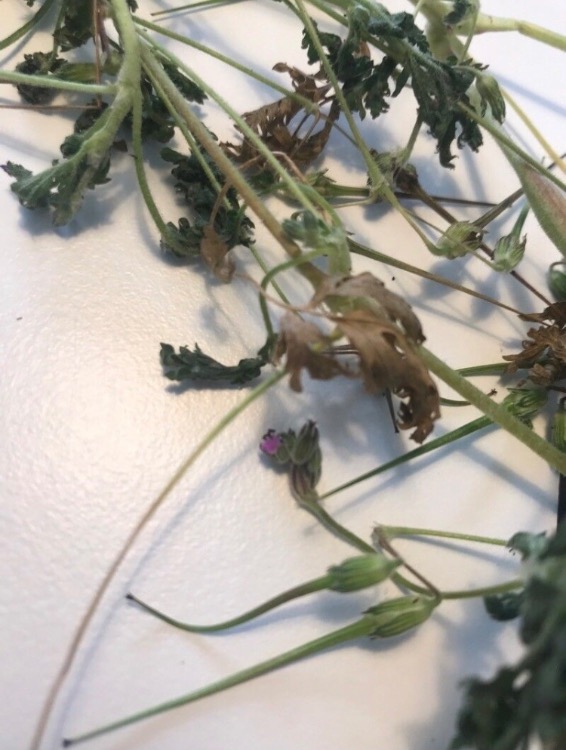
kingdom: Plantae
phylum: Tracheophyta
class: Magnoliopsida
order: Geraniales
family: Geraniaceae
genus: Erodium
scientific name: Erodium cicutarium
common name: Hejrenæb
